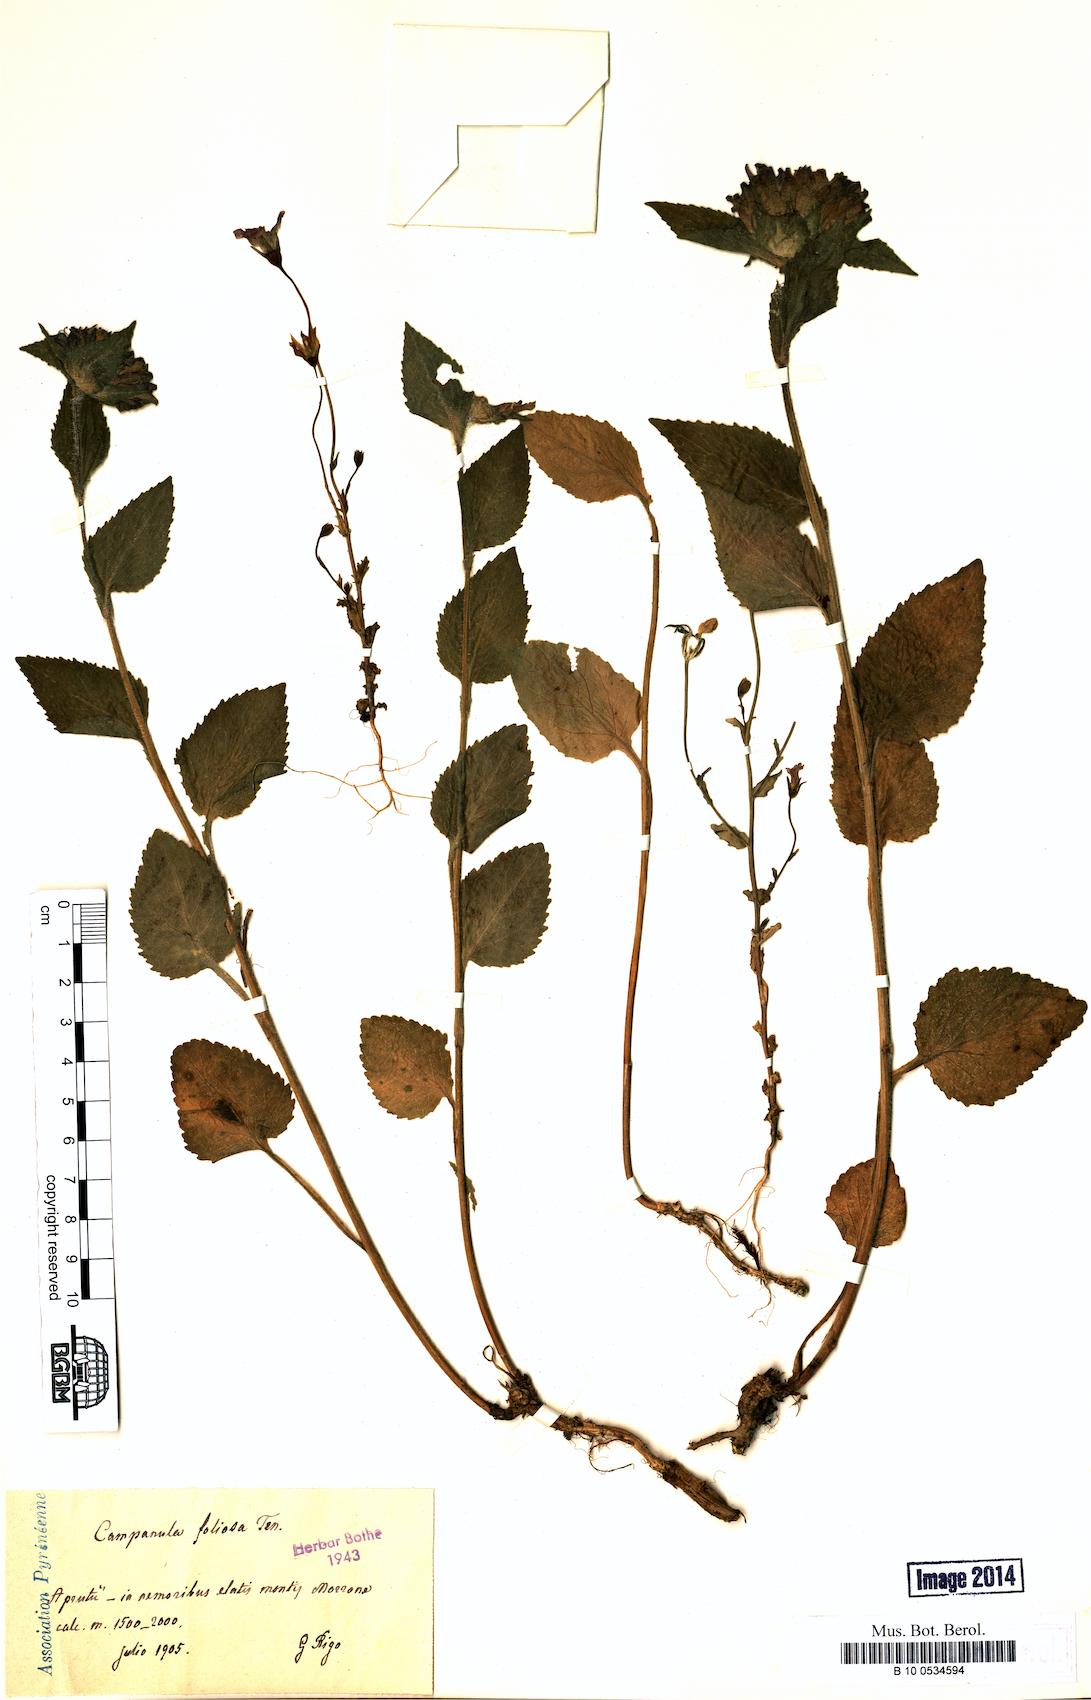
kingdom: Plantae
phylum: Tracheophyta
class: Magnoliopsida
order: Asterales
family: Campanulaceae
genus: Campanula
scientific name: Campanula foliosa
